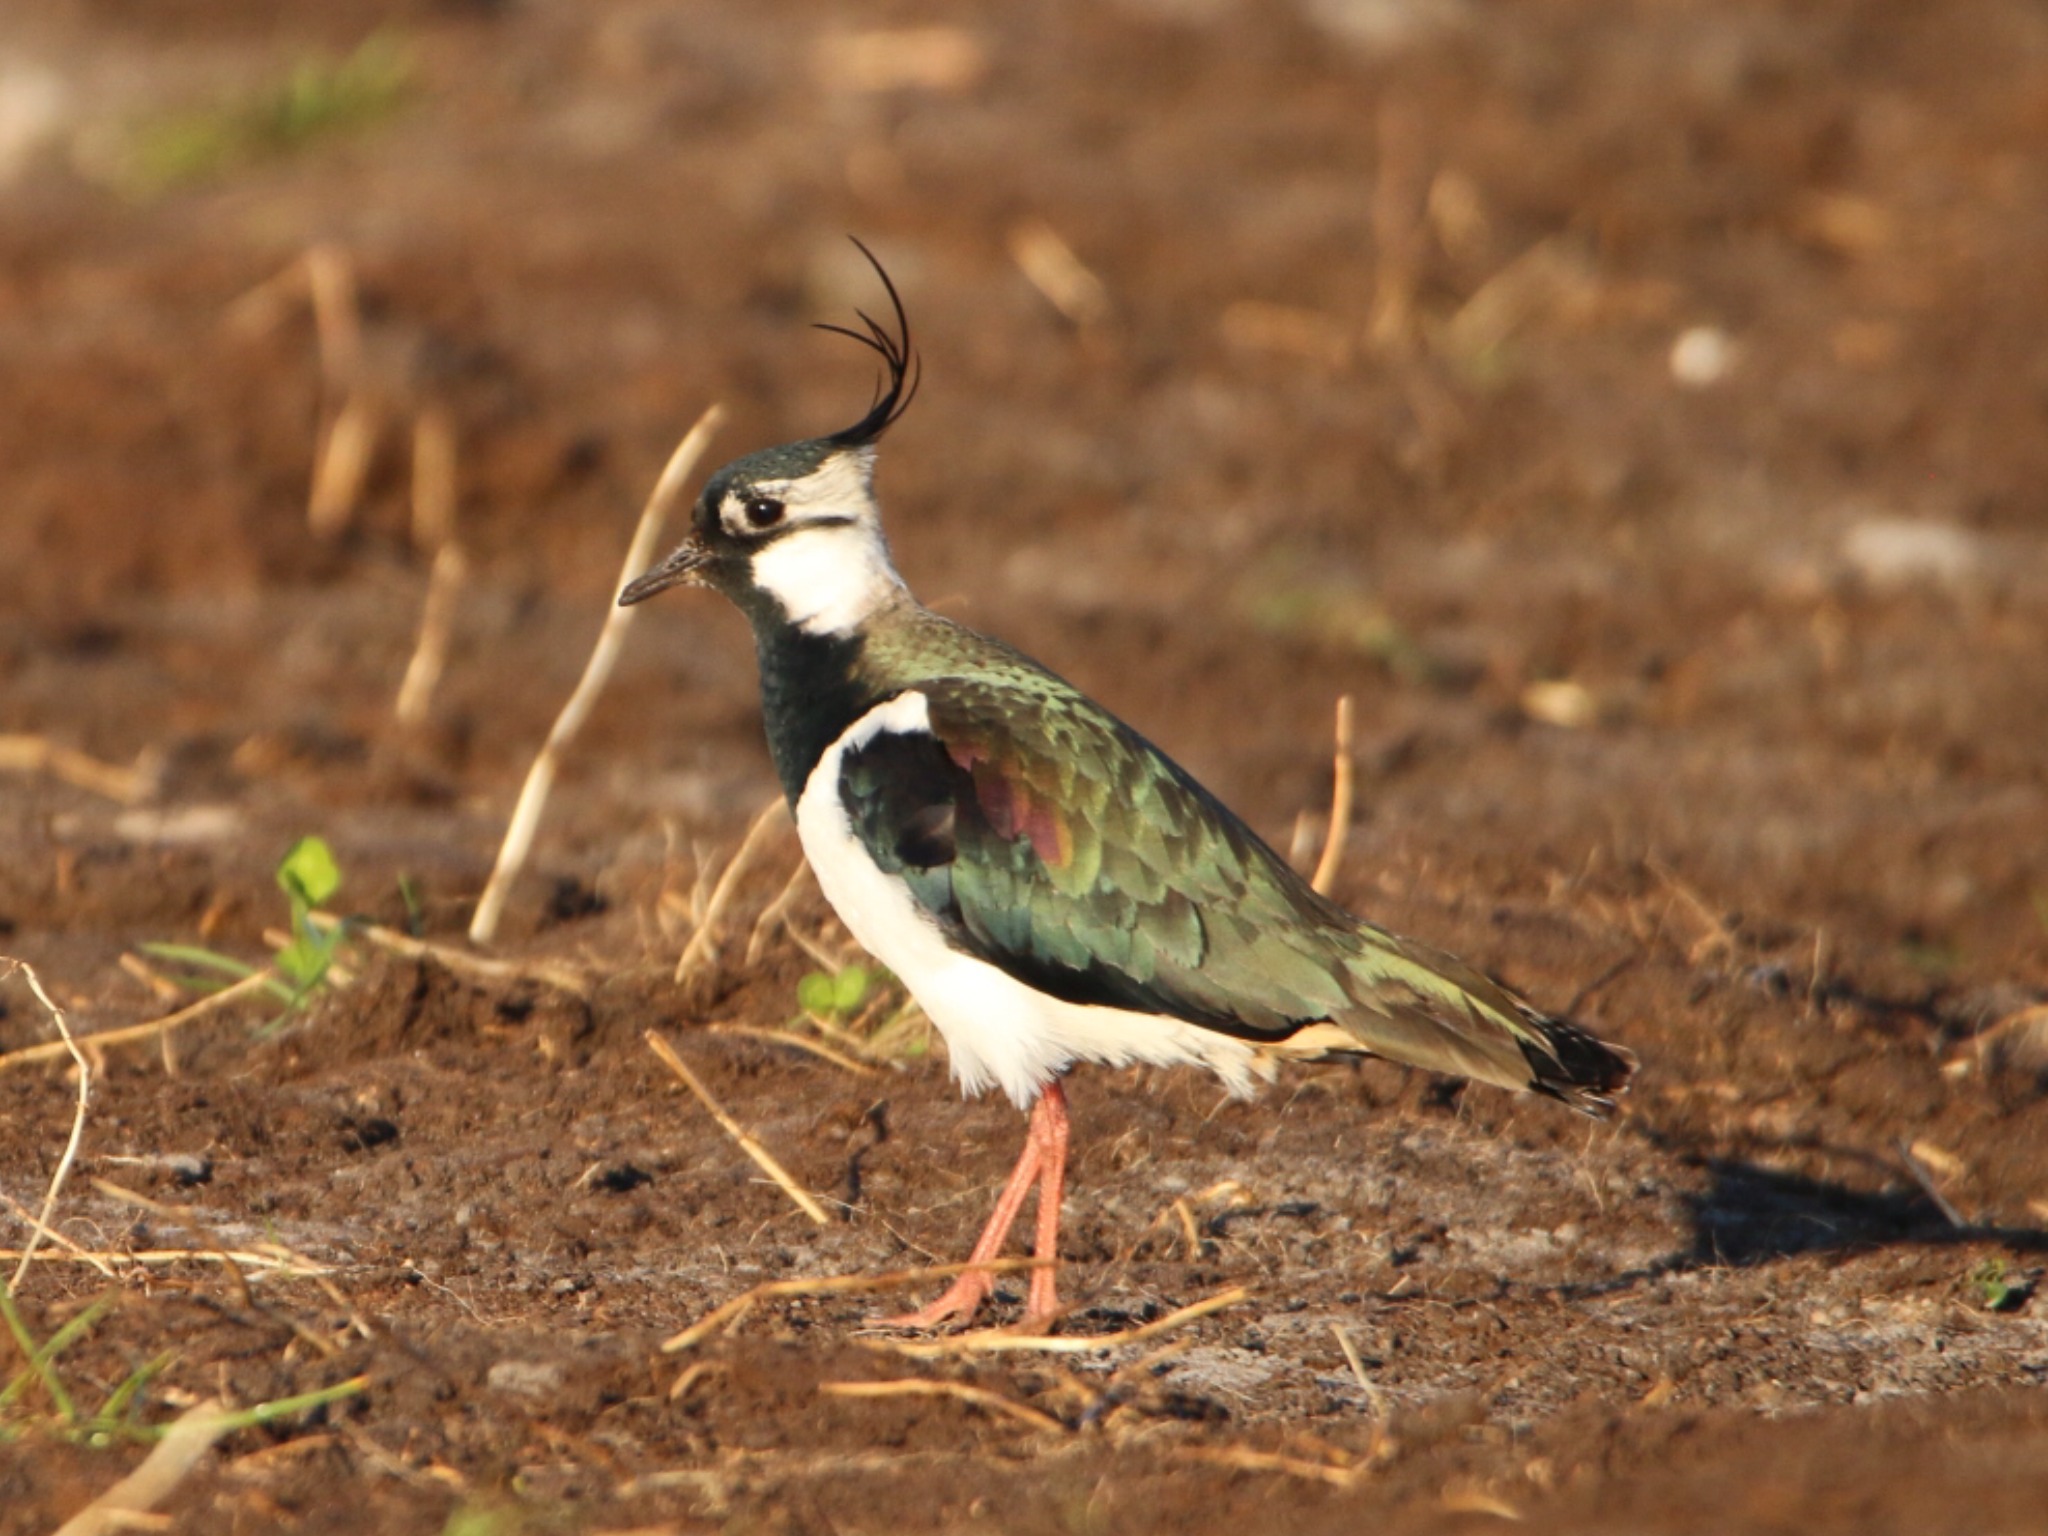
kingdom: Animalia
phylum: Chordata
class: Aves
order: Charadriiformes
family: Charadriidae
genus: Vanellus
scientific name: Vanellus vanellus
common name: Vibe
